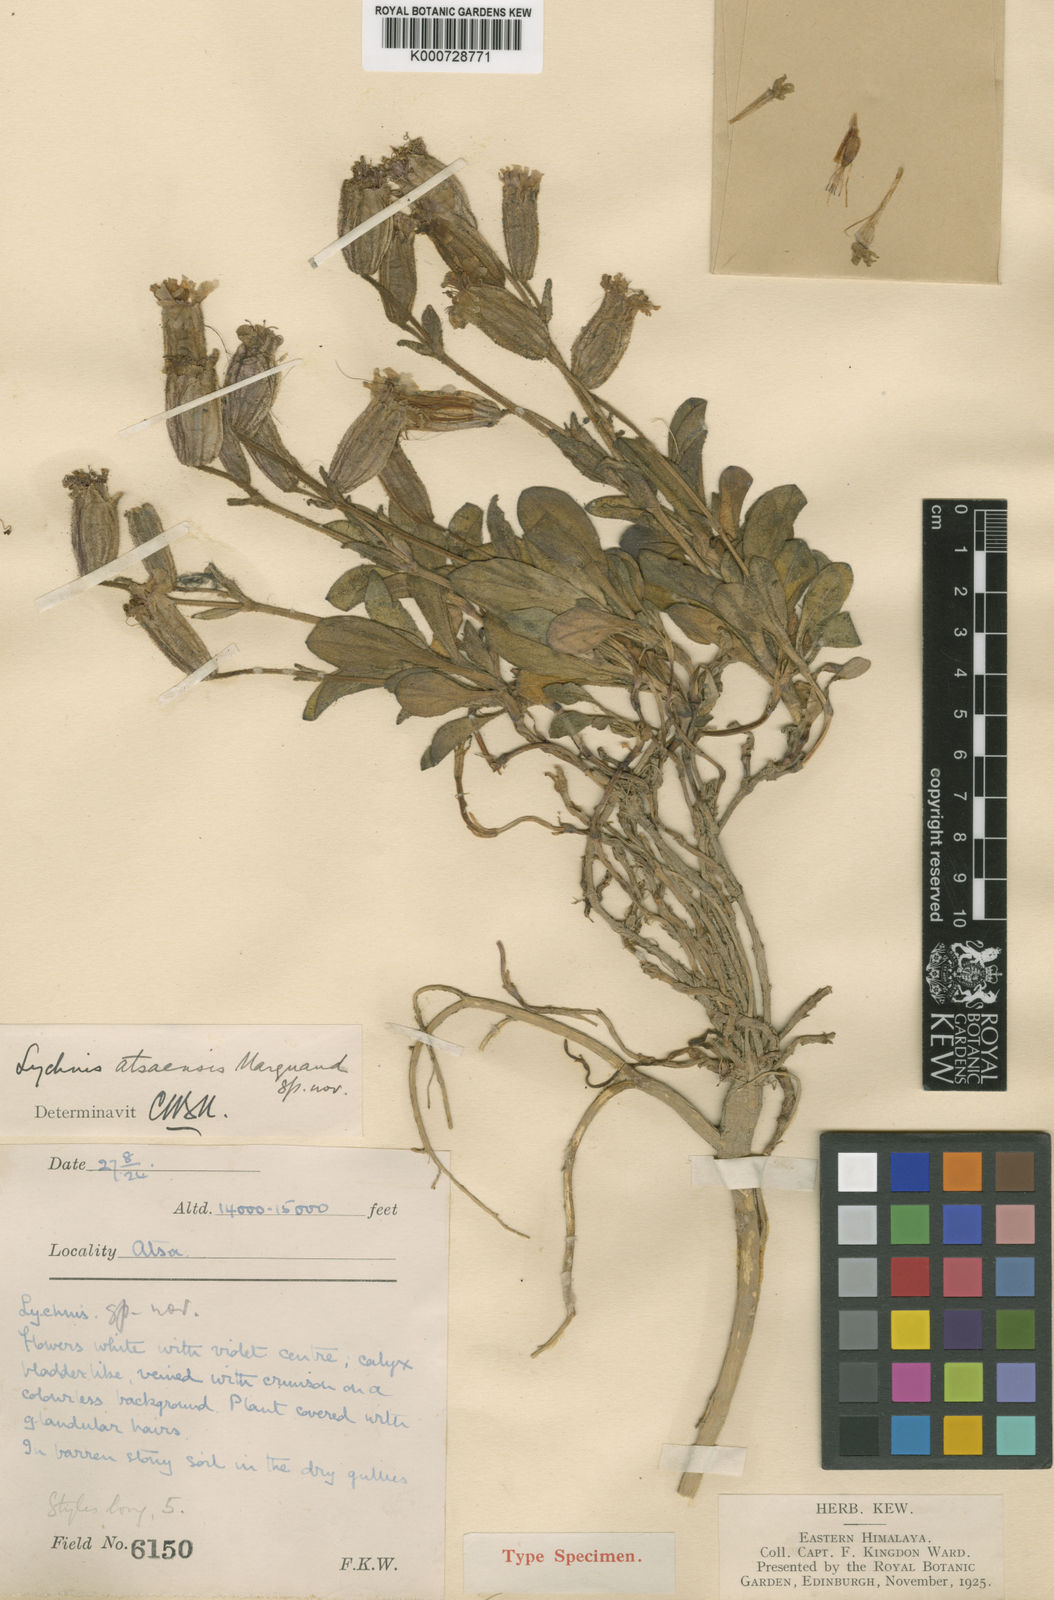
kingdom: Plantae
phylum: Tracheophyta
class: Magnoliopsida
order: Caryophyllales
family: Caryophyllaceae
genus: Silene
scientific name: Silene atsaensis
